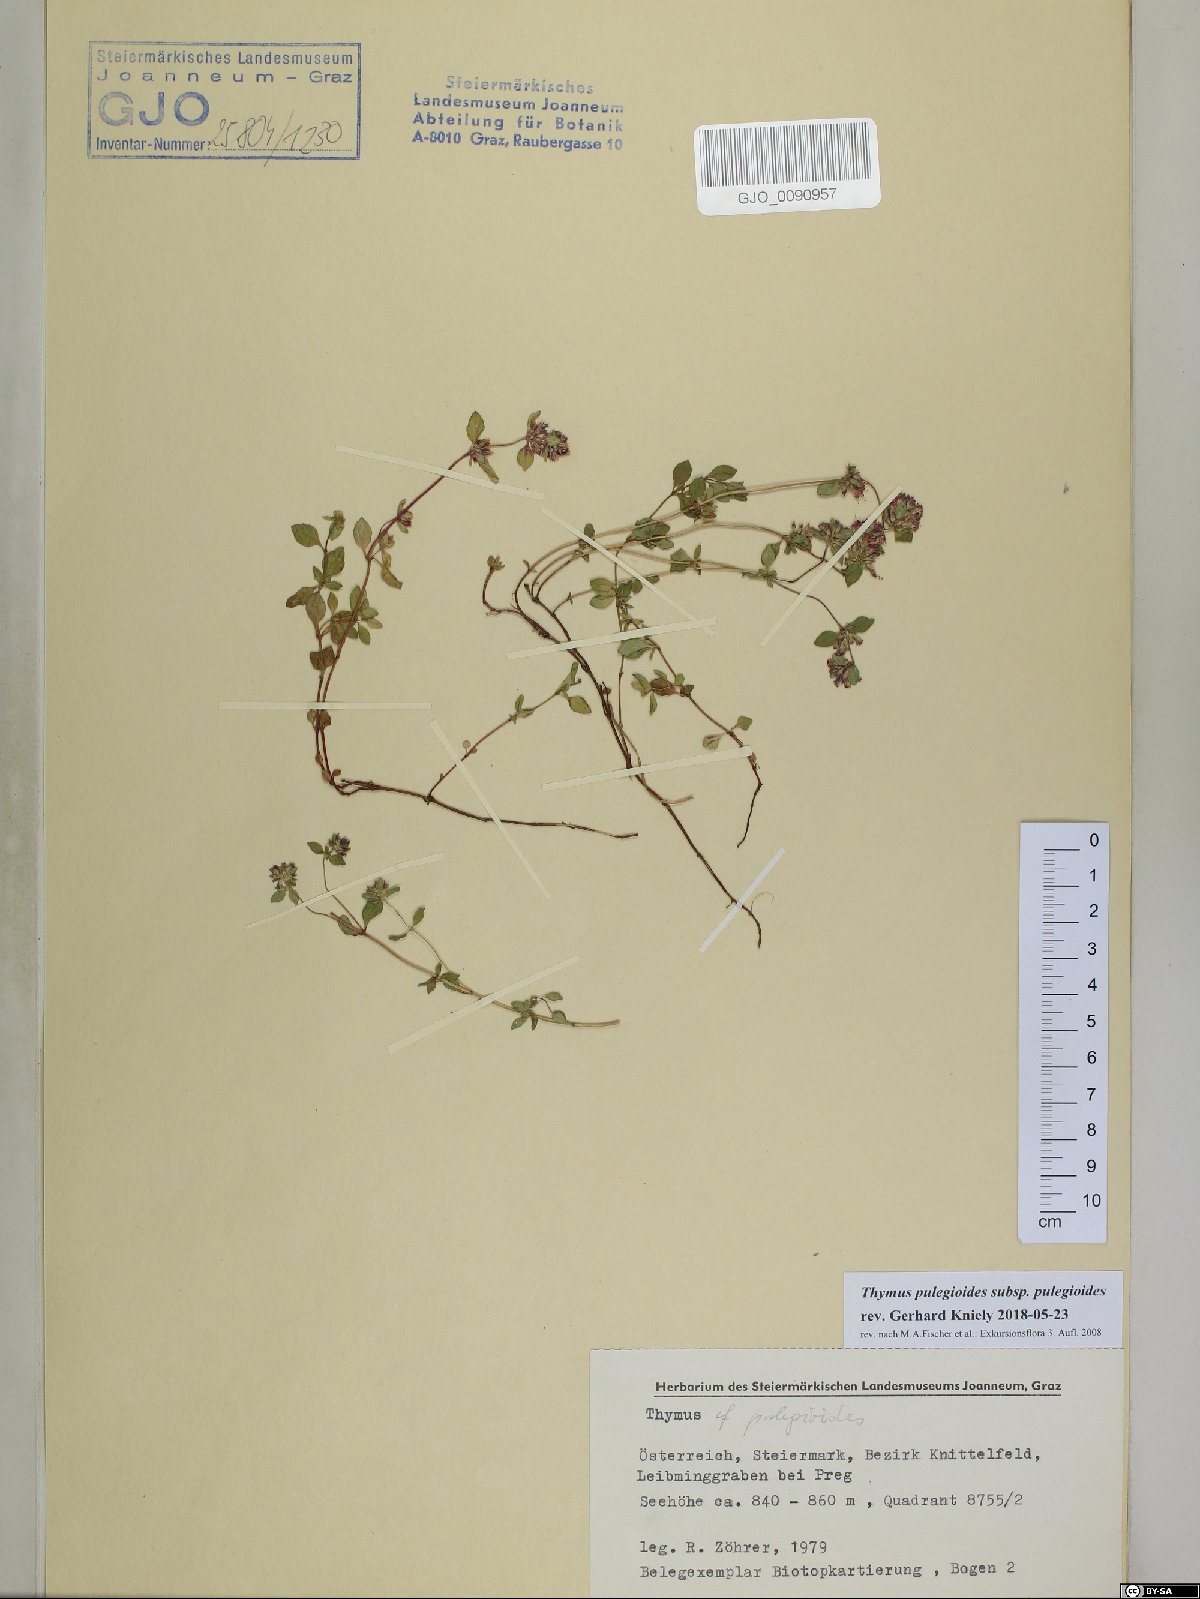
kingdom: Plantae
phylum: Tracheophyta
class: Magnoliopsida
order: Lamiales
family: Lamiaceae
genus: Thymus
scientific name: Thymus pulegioides
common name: Large thyme
